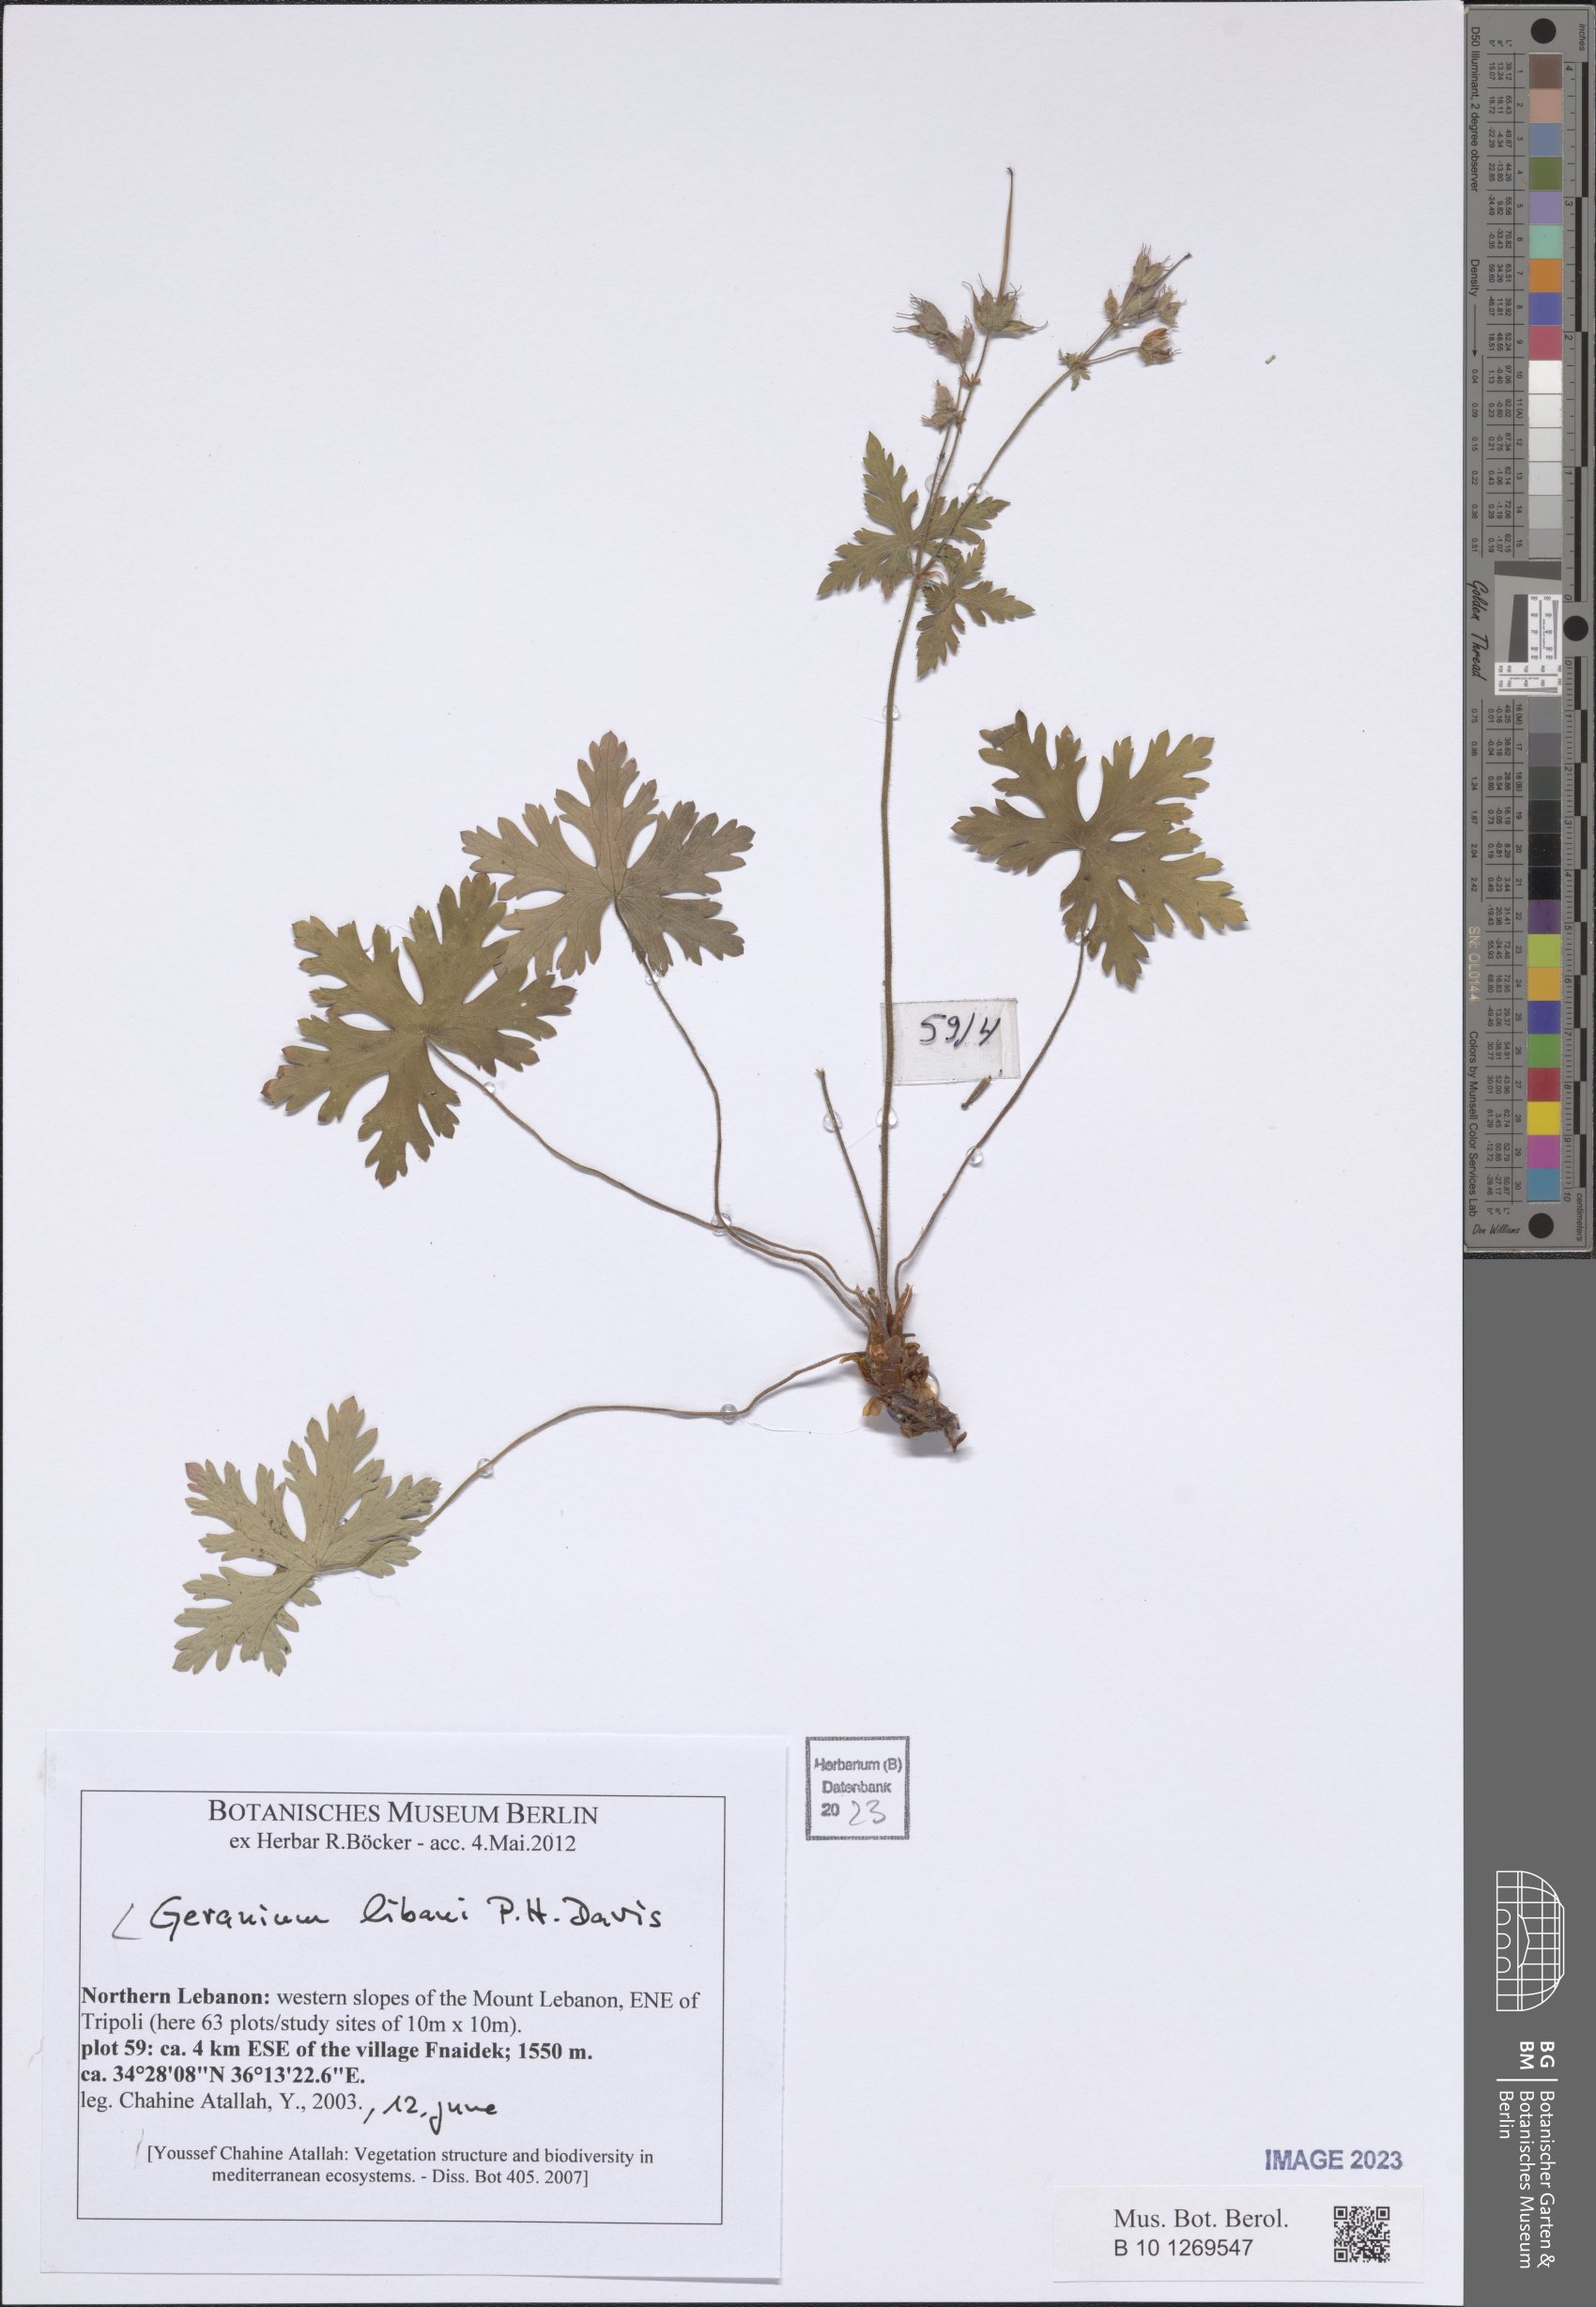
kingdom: Plantae
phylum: Tracheophyta
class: Magnoliopsida
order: Geraniales
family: Geraniaceae
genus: Geranium
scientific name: Geranium libani
